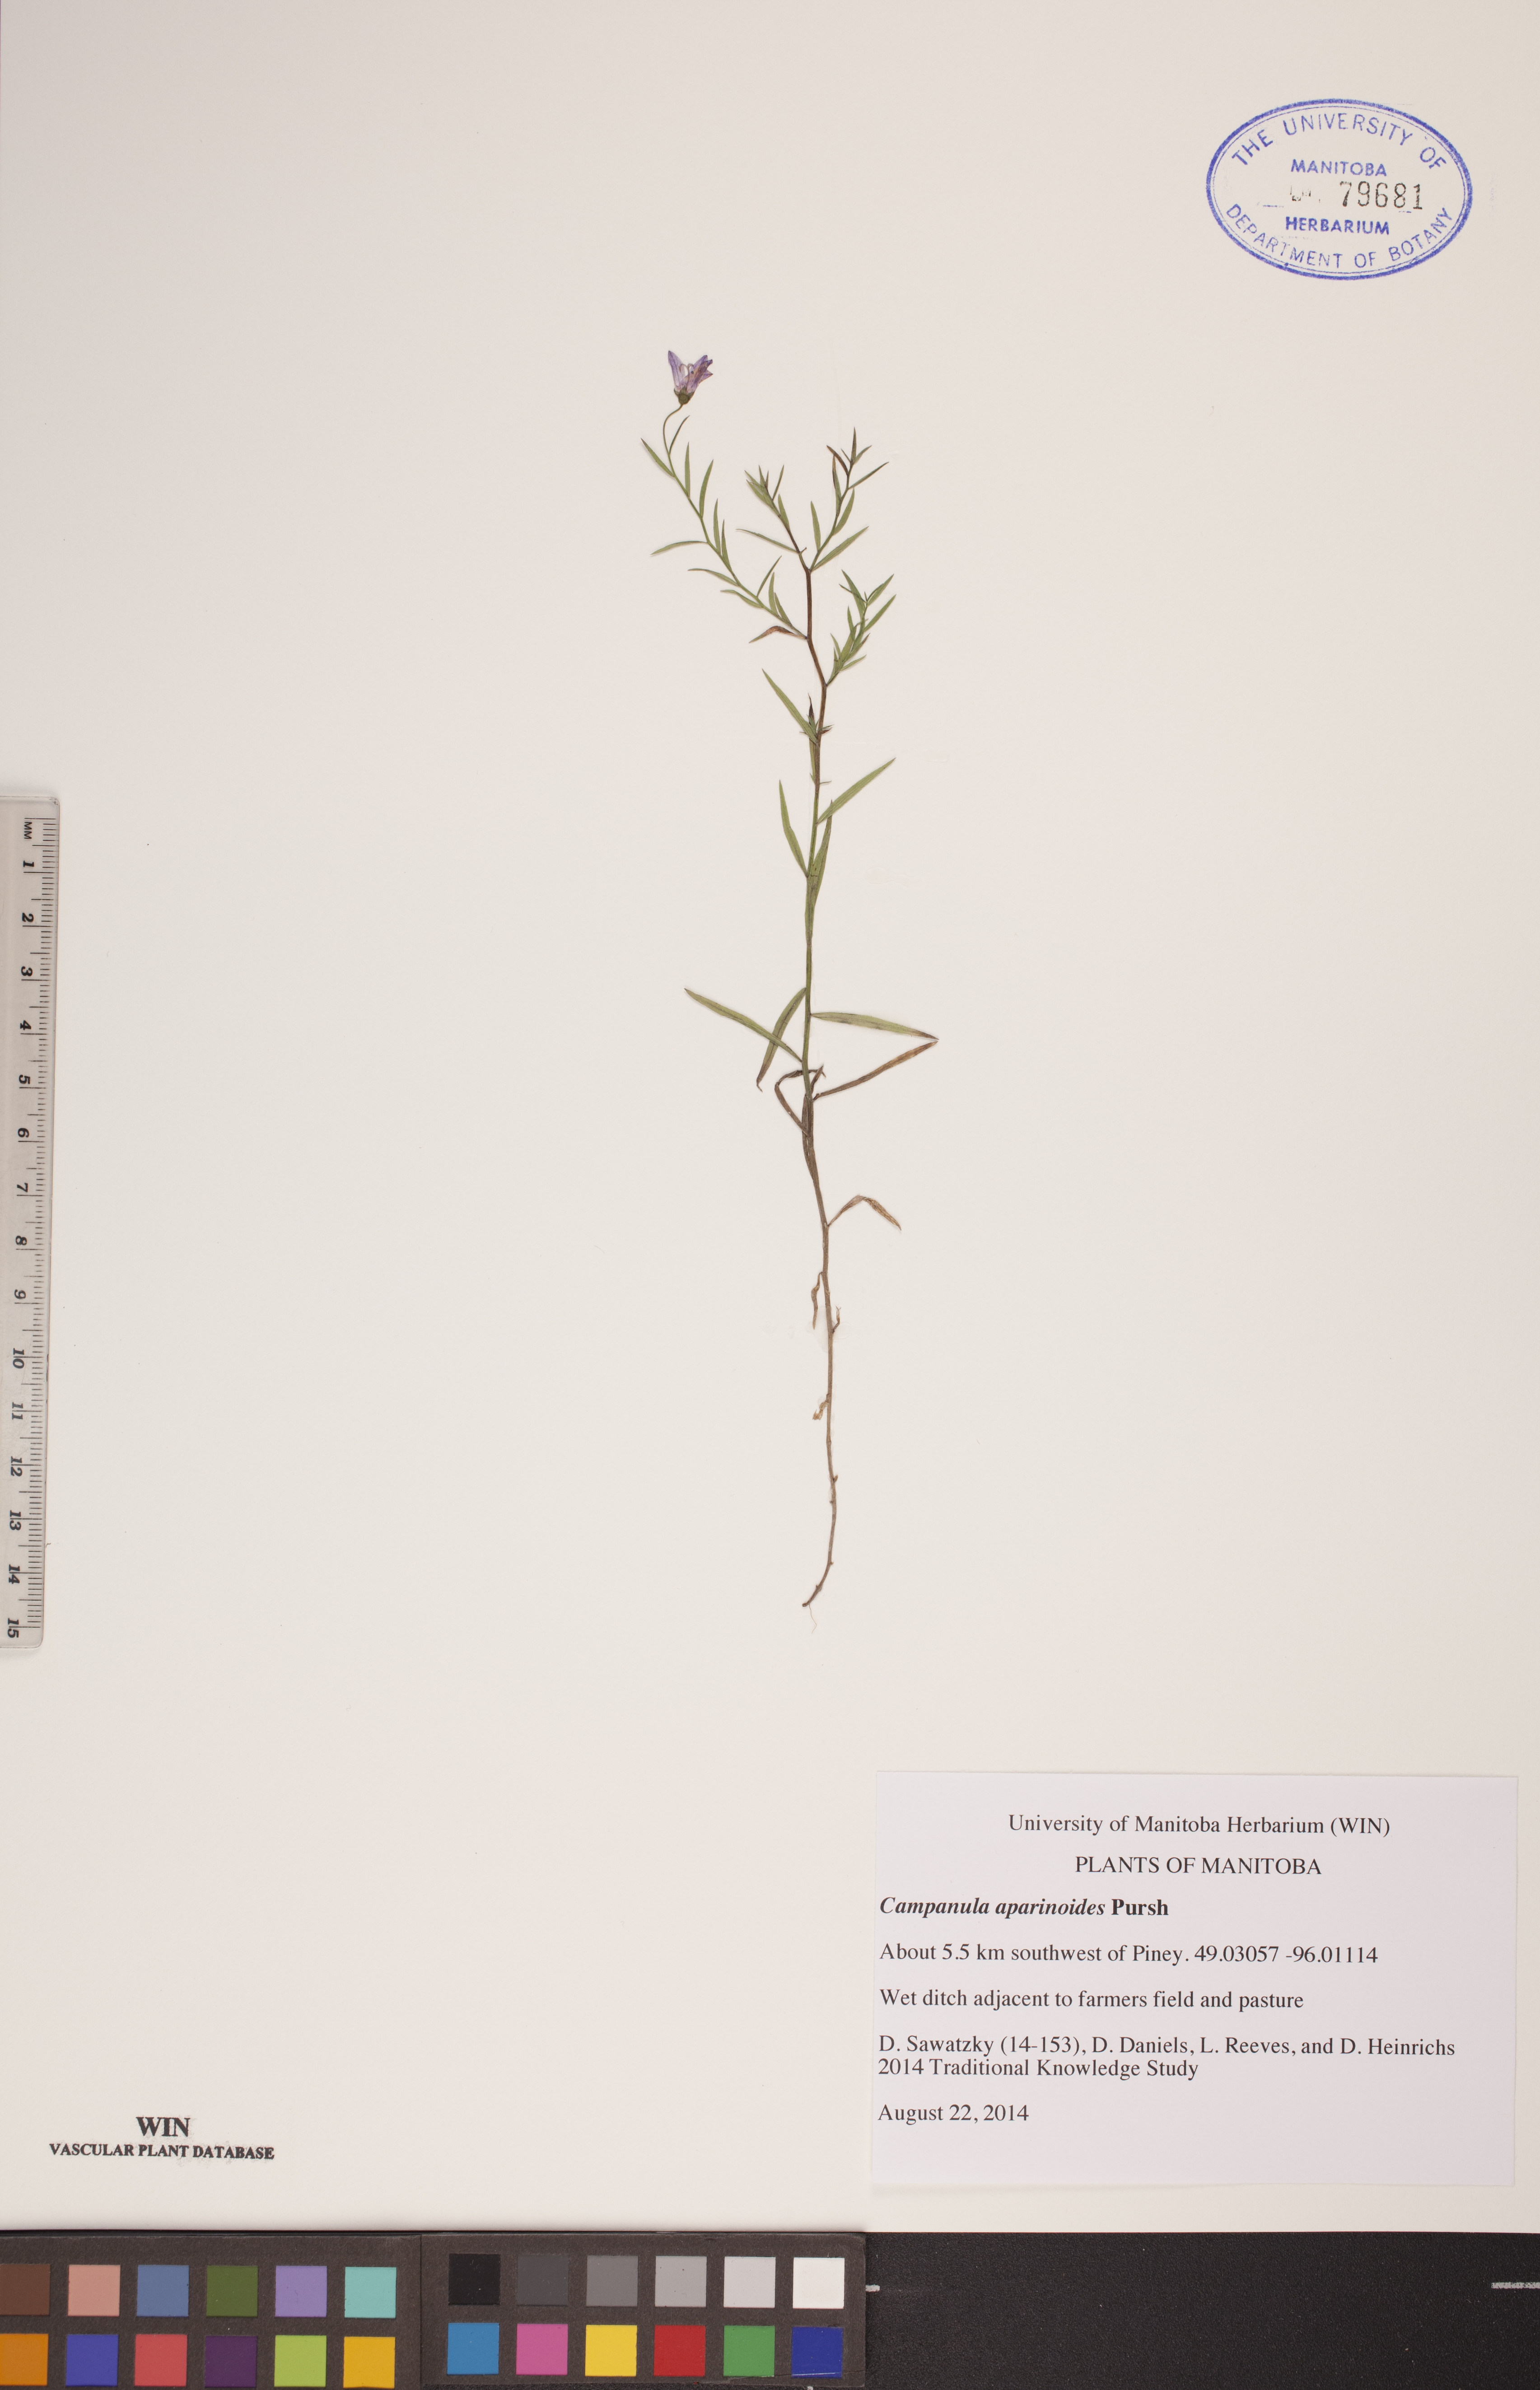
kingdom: Plantae
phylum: Tracheophyta
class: Magnoliopsida
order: Asterales
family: Campanulaceae
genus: Palustricodon
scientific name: Palustricodon aparinoides
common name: Bedstraw bellflower
